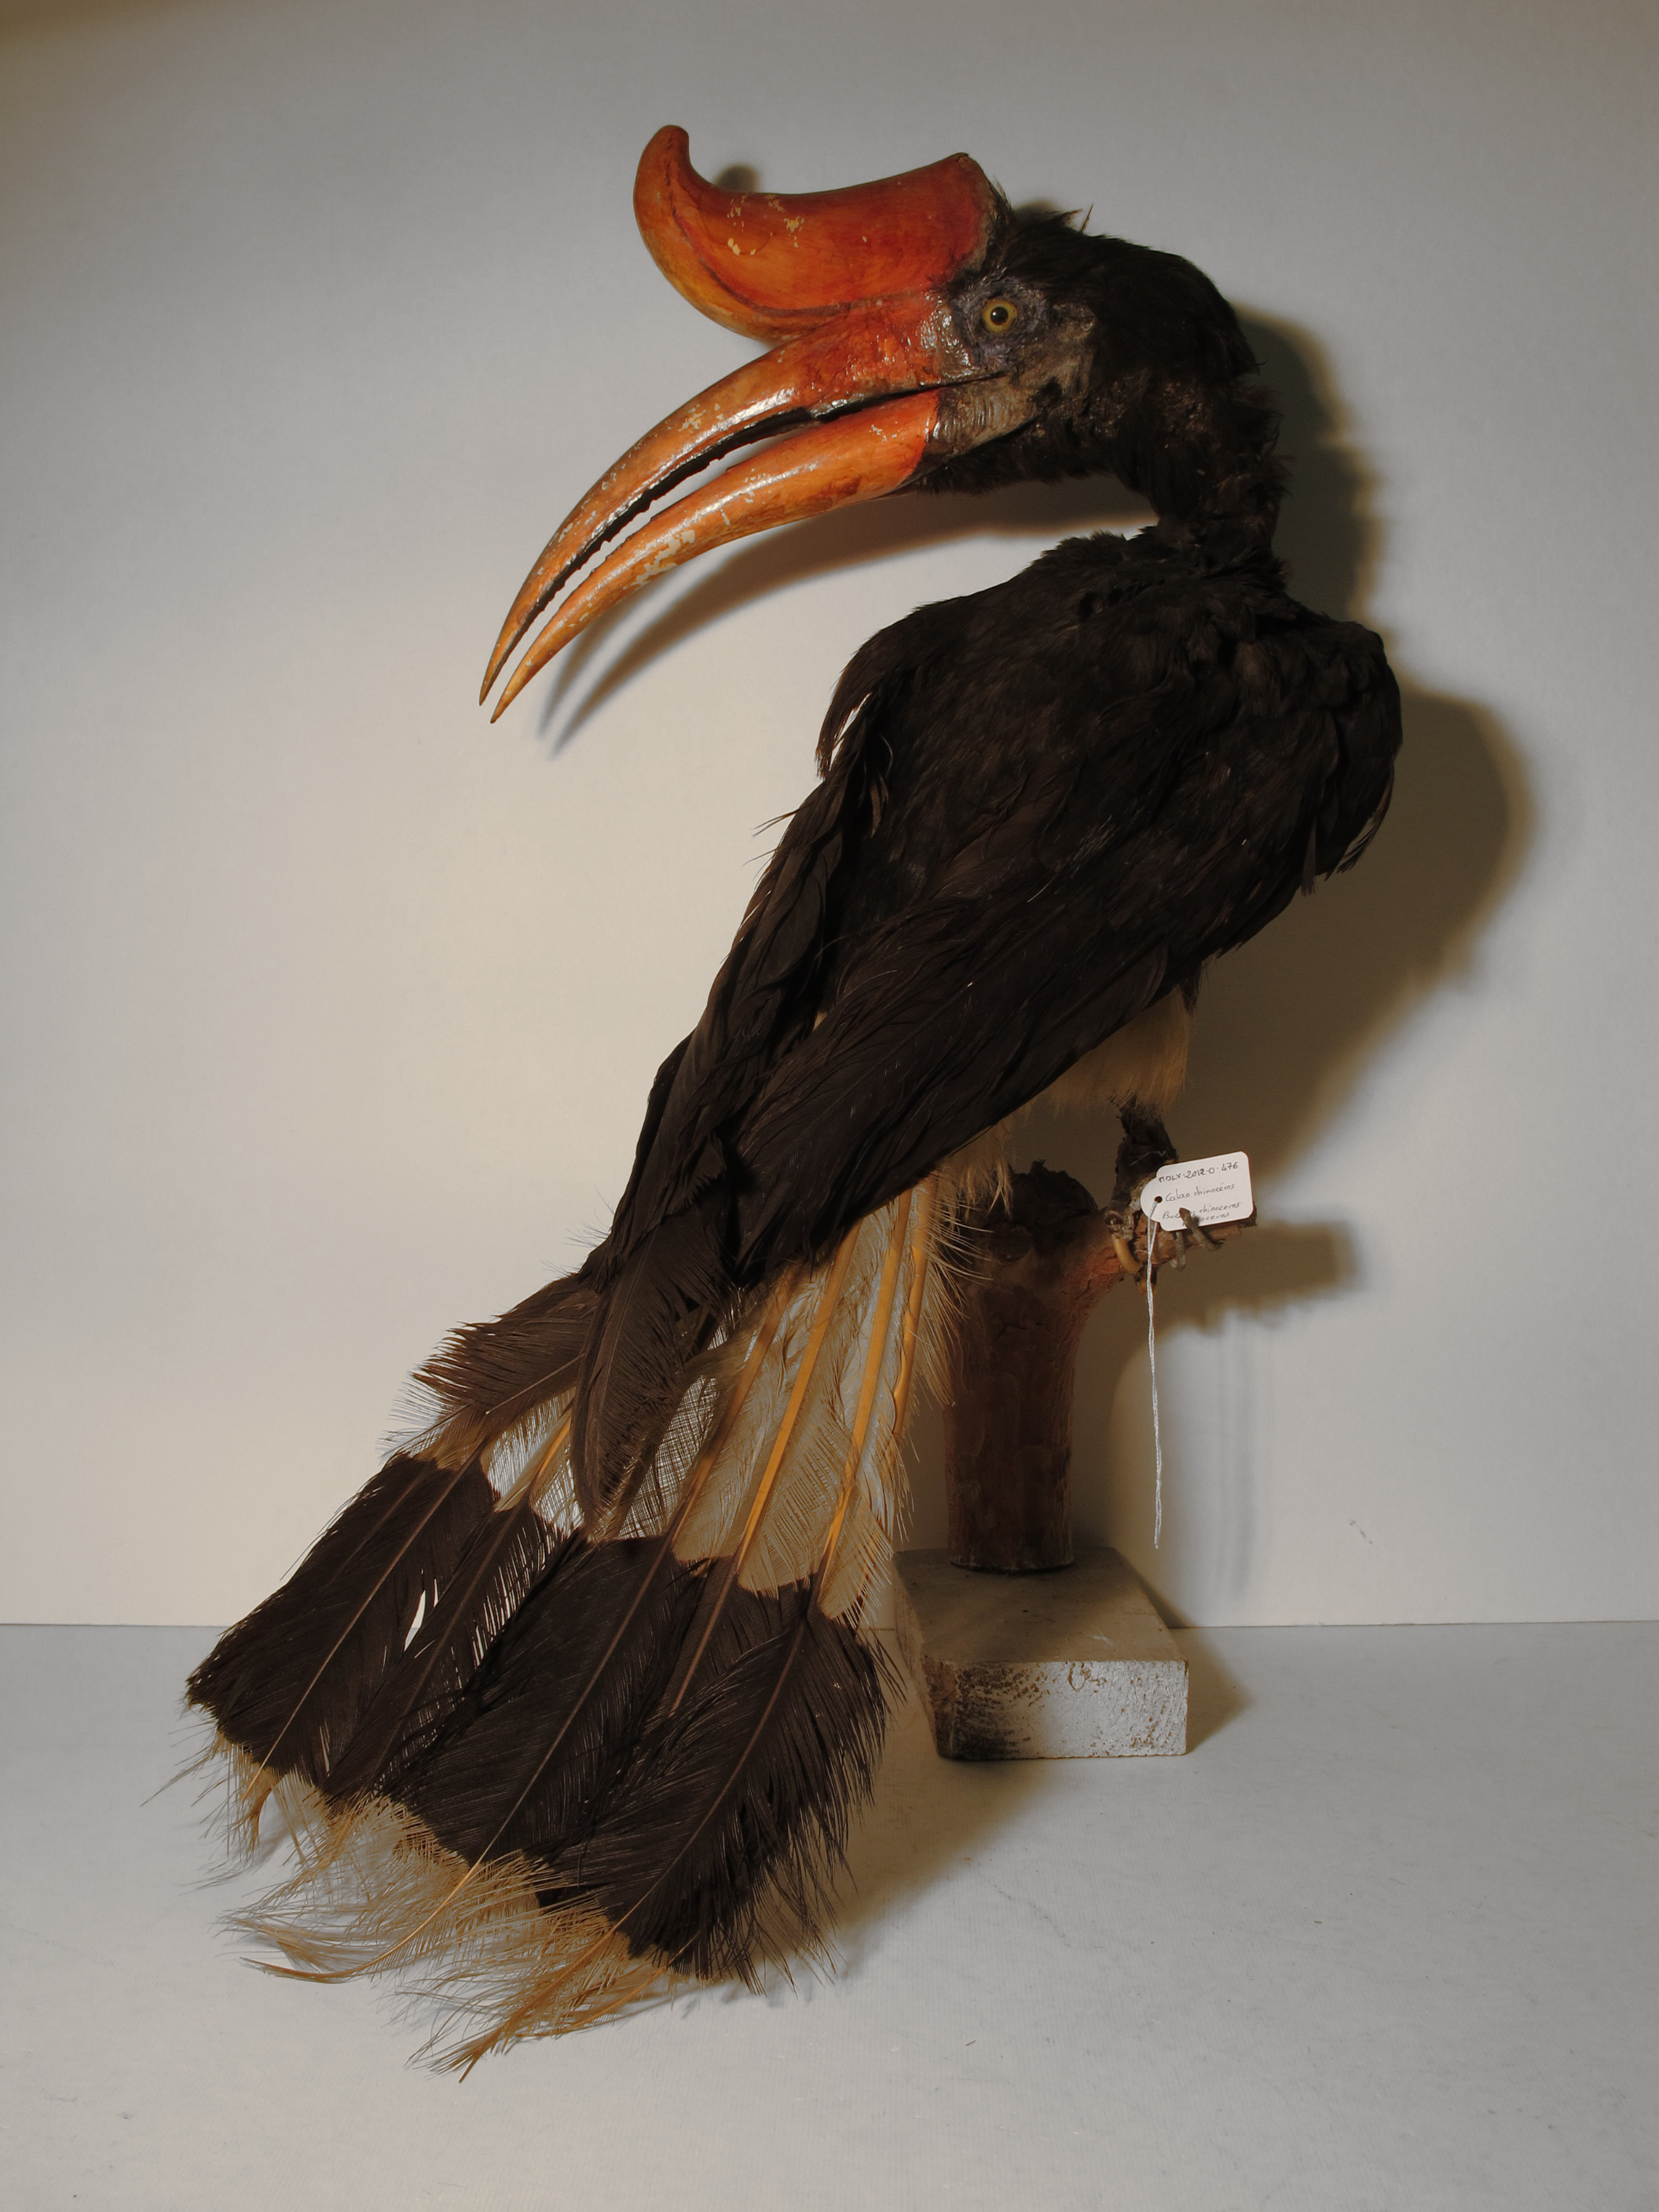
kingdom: Animalia
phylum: Chordata
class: Aves
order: Bucerotiformes
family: Bucerotidae
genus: Buceros
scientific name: Buceros rhinoceros
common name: Rhinoceros Hornbill
